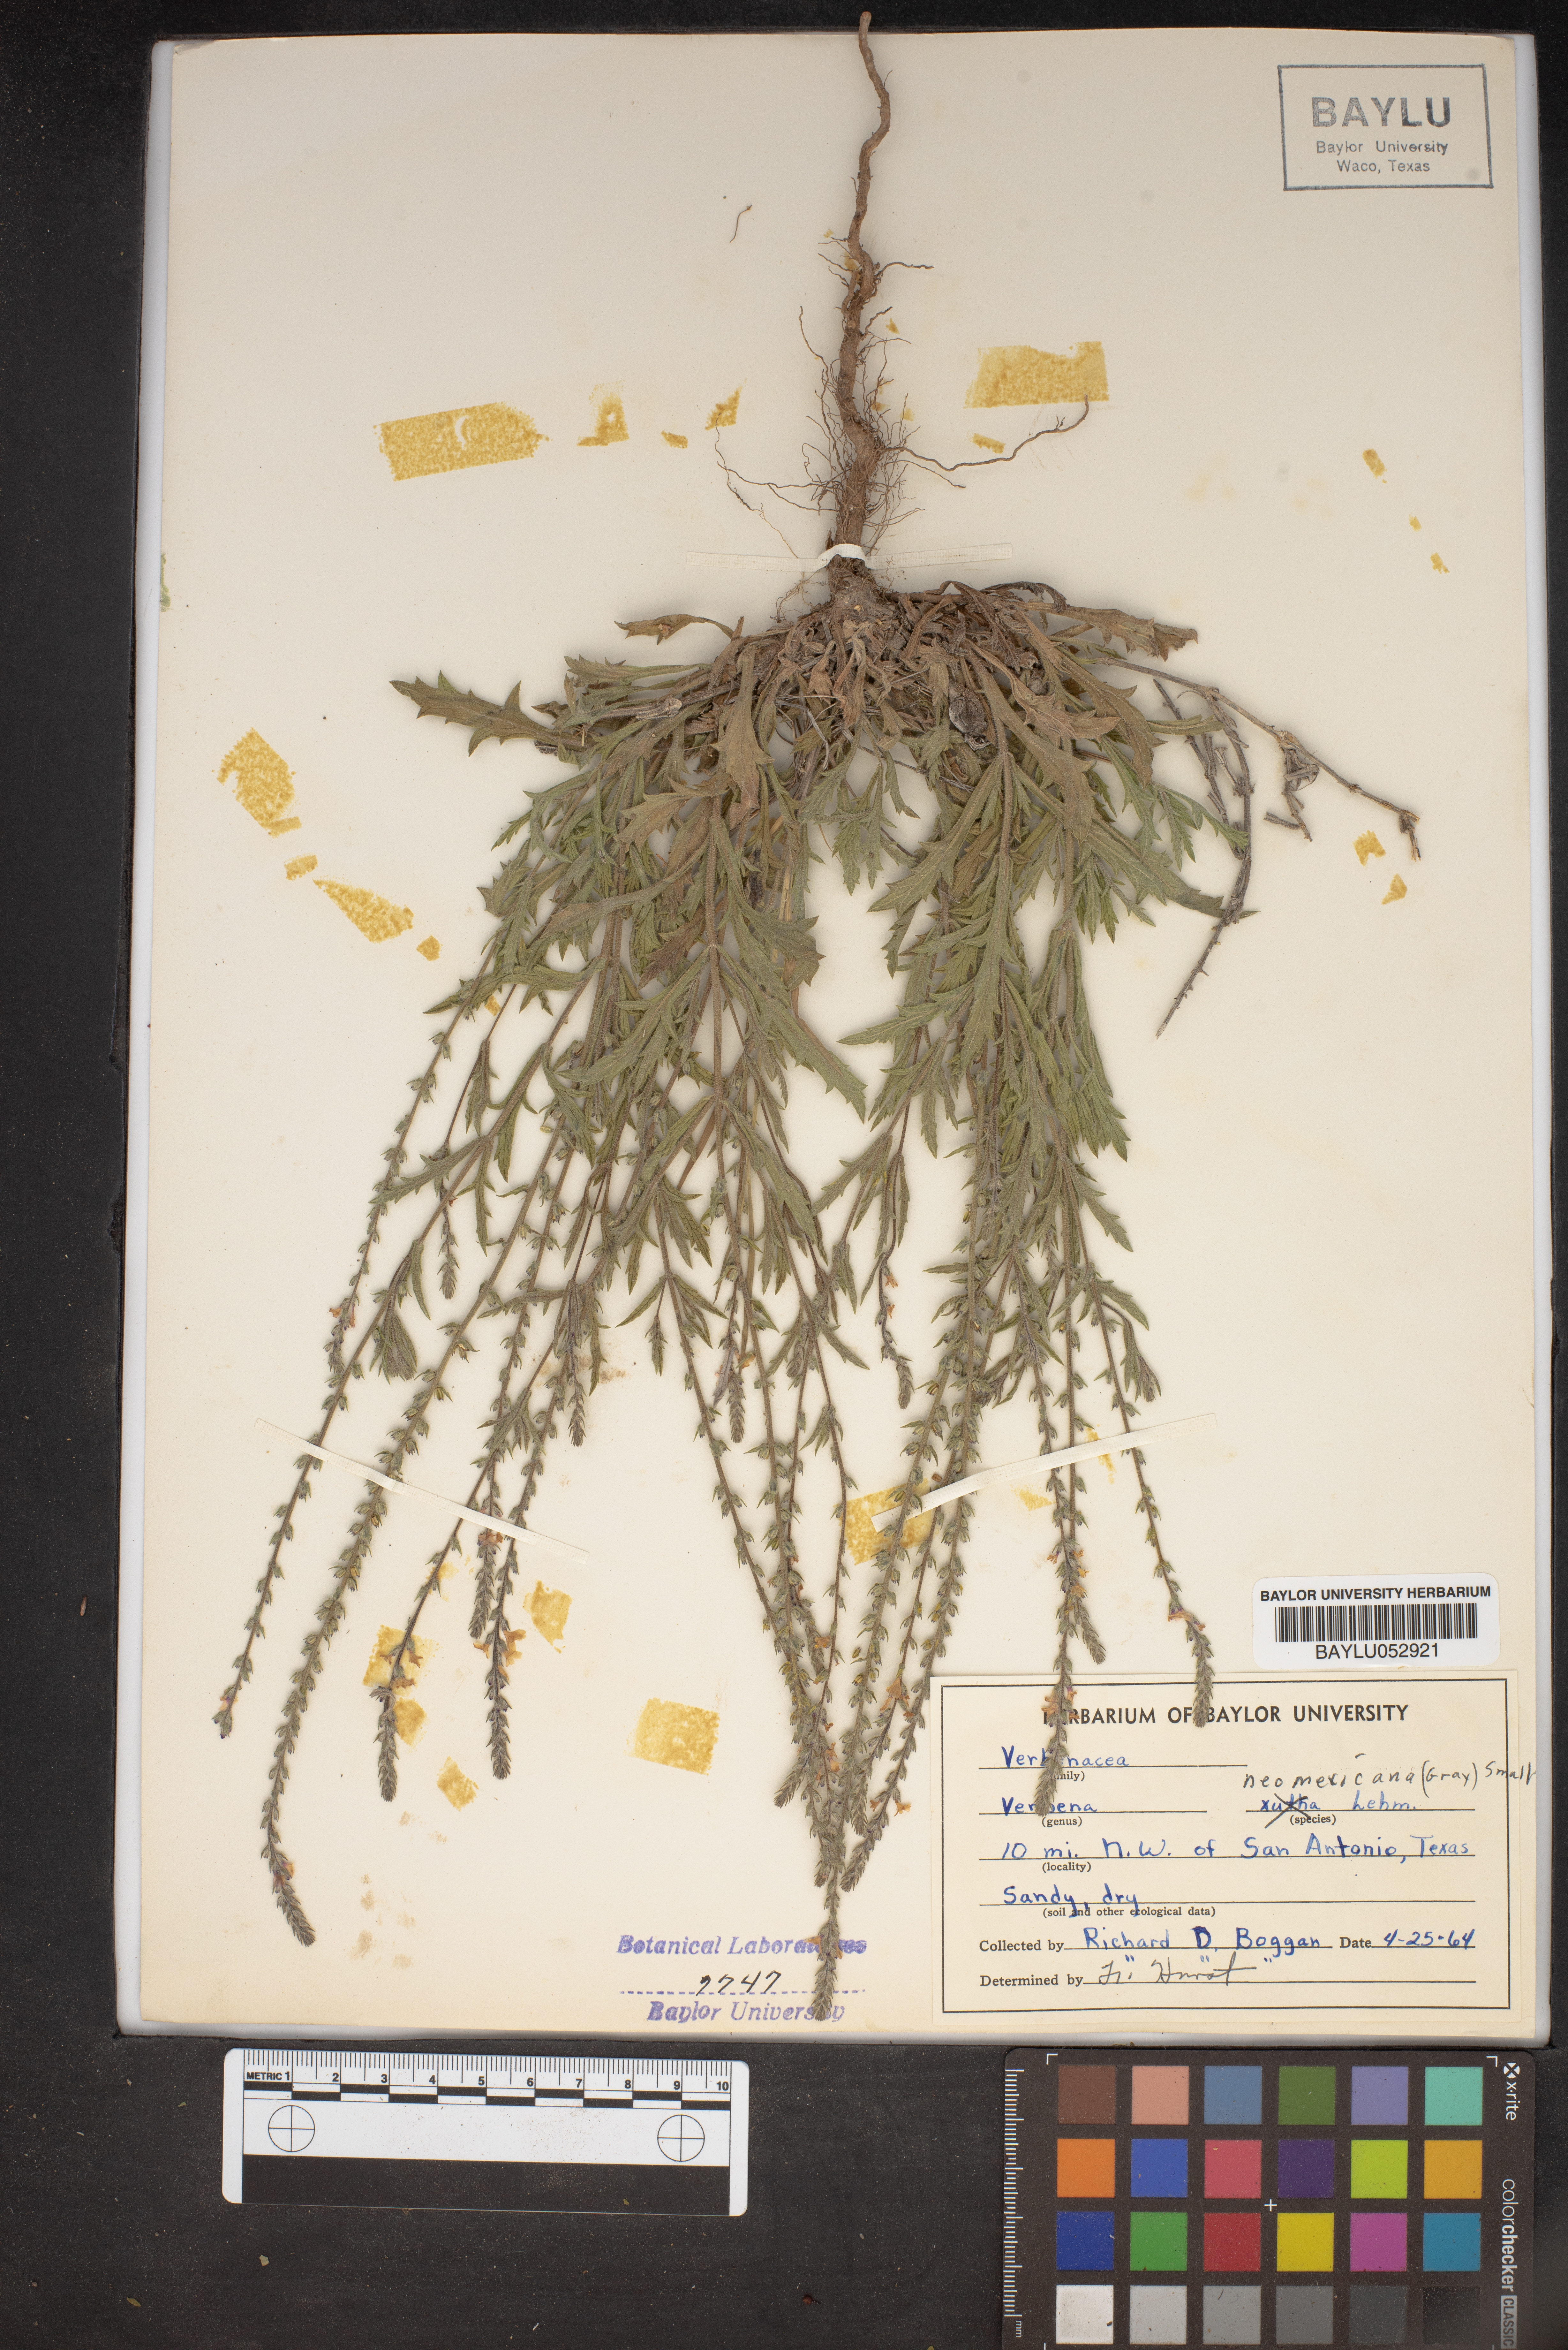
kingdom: Plantae
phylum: Tracheophyta
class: Magnoliopsida
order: Lamiales
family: Verbenaceae
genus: Verbena
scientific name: Verbena neomexicana
